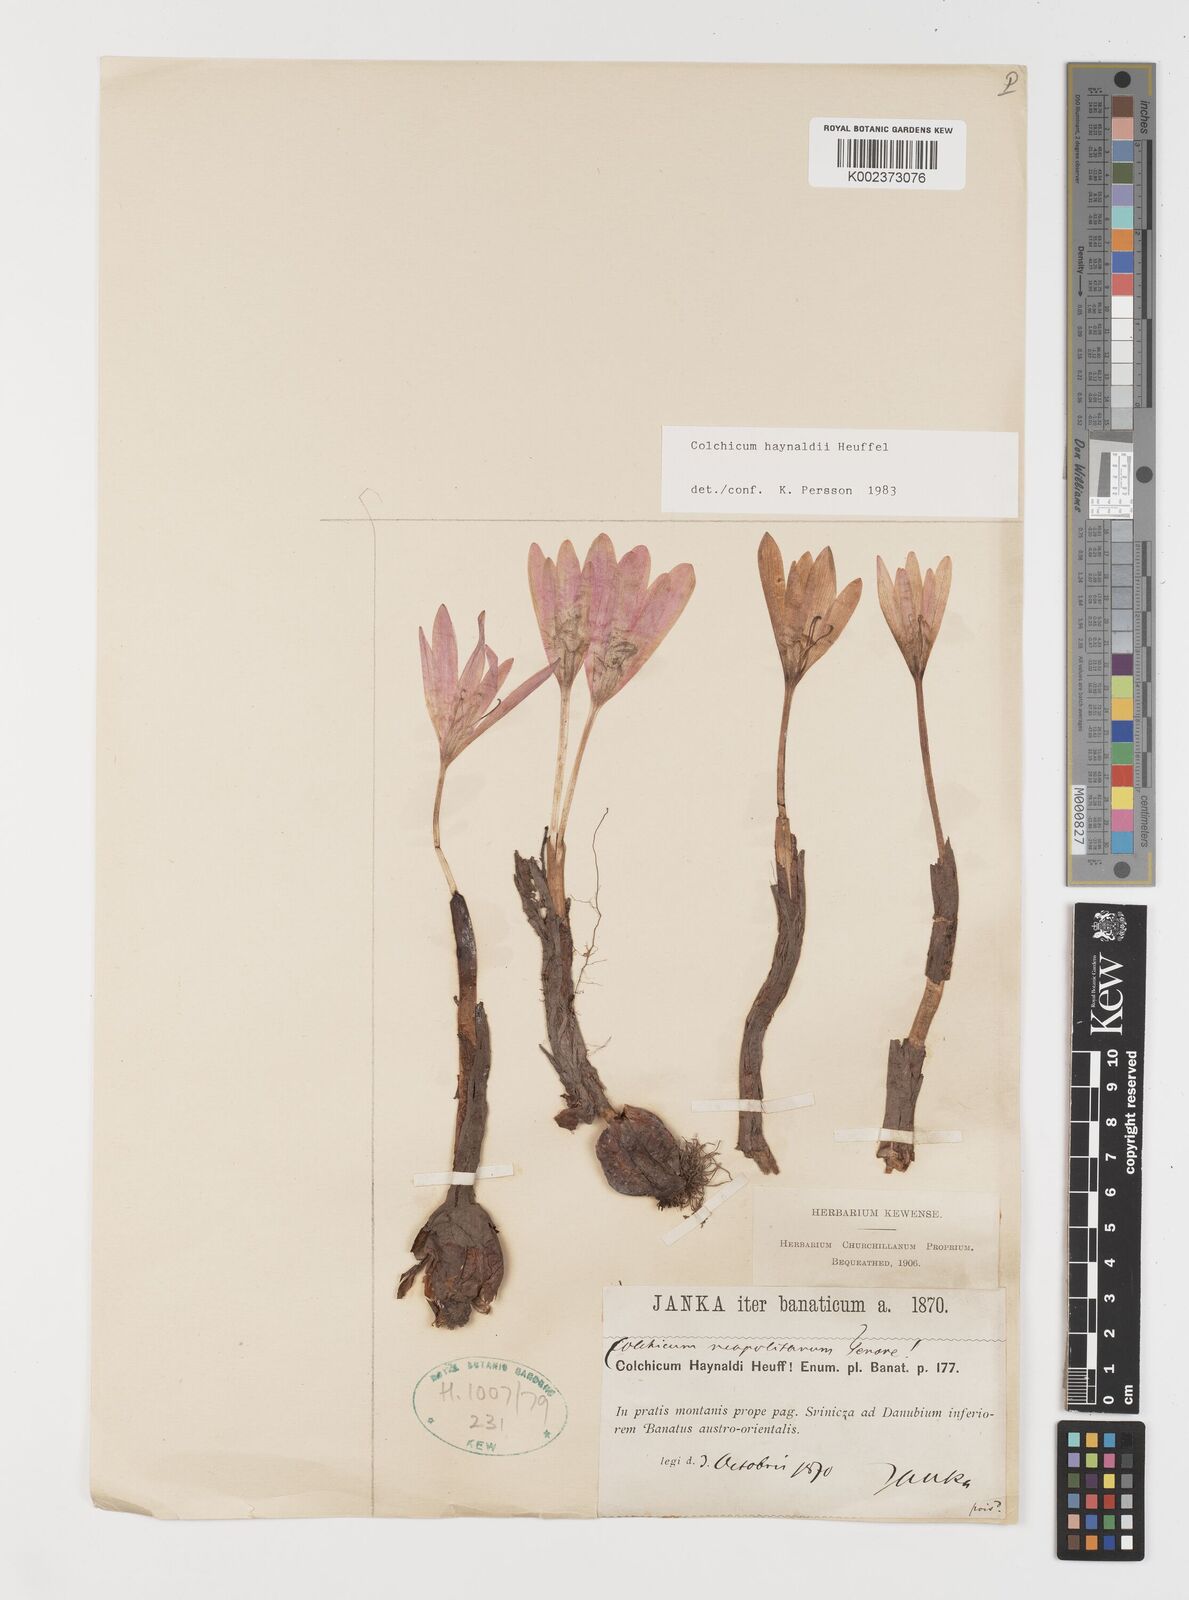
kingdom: Plantae
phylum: Tracheophyta
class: Liliopsida
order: Liliales
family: Colchicaceae
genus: Colchicum
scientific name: Colchicum haynaldii
